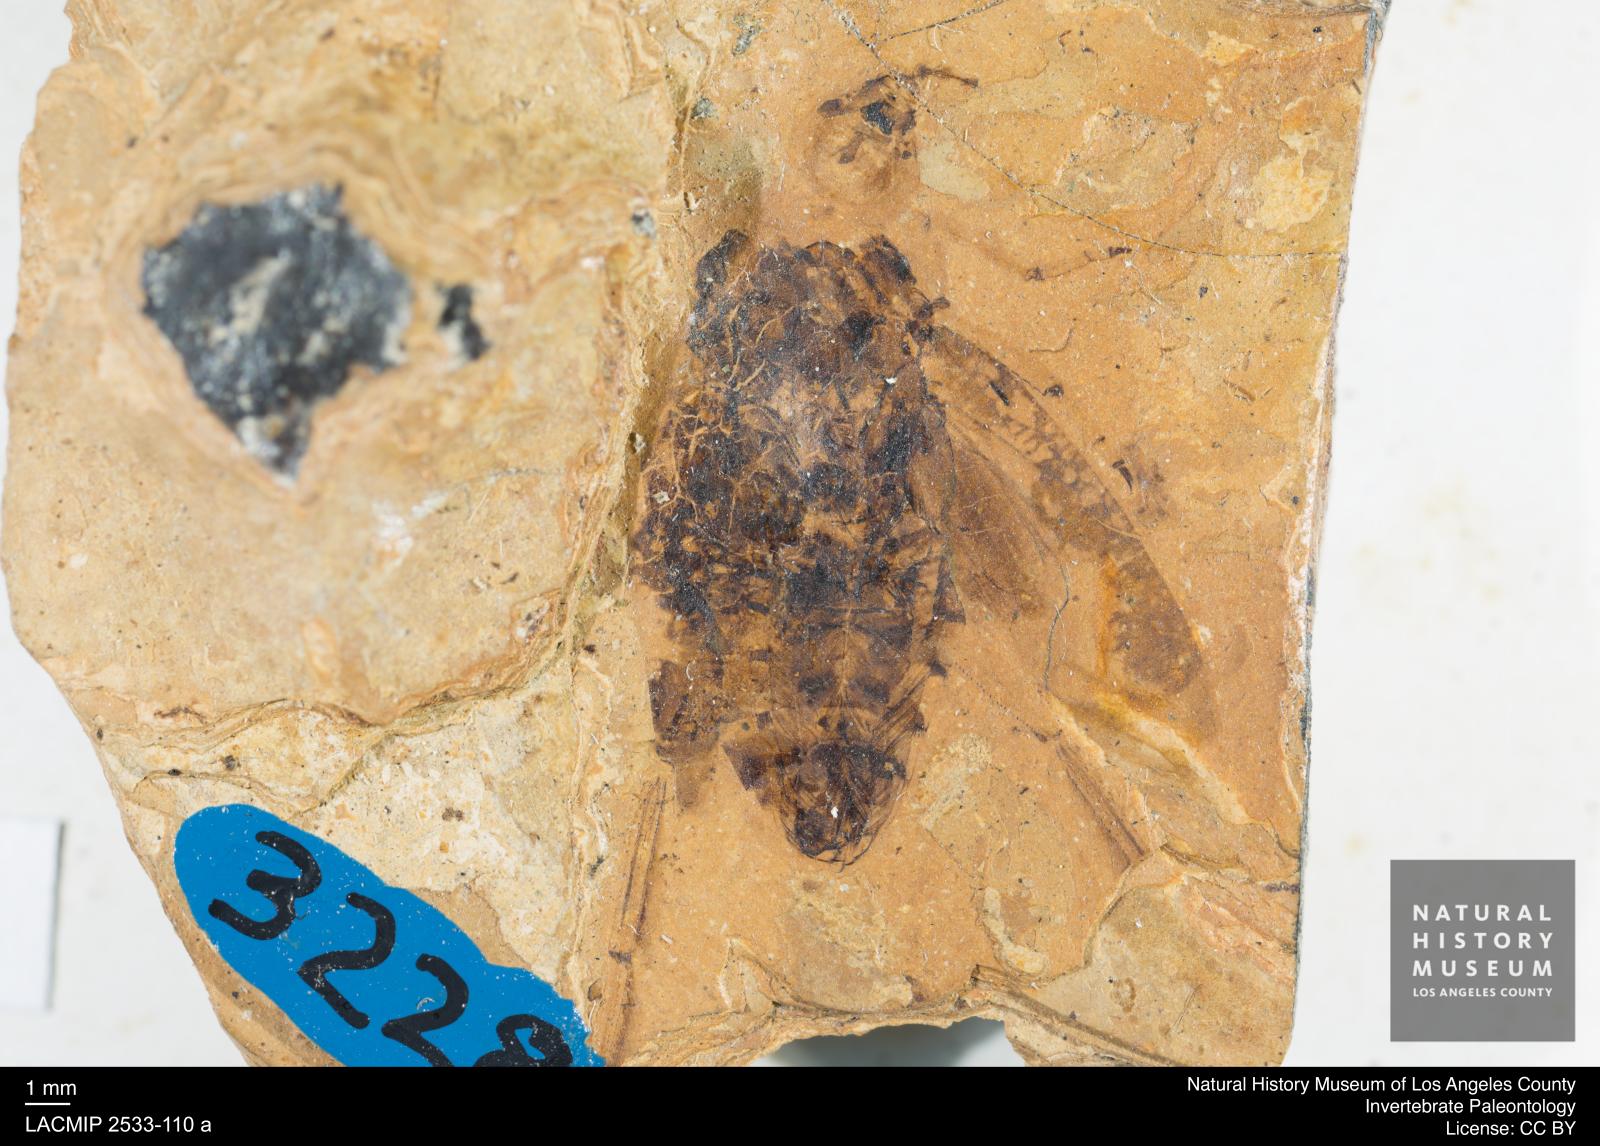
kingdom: Animalia
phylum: Arthropoda
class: Insecta
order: Hemiptera
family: Notonectidae
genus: Notonecta
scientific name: Notonecta primaeva
